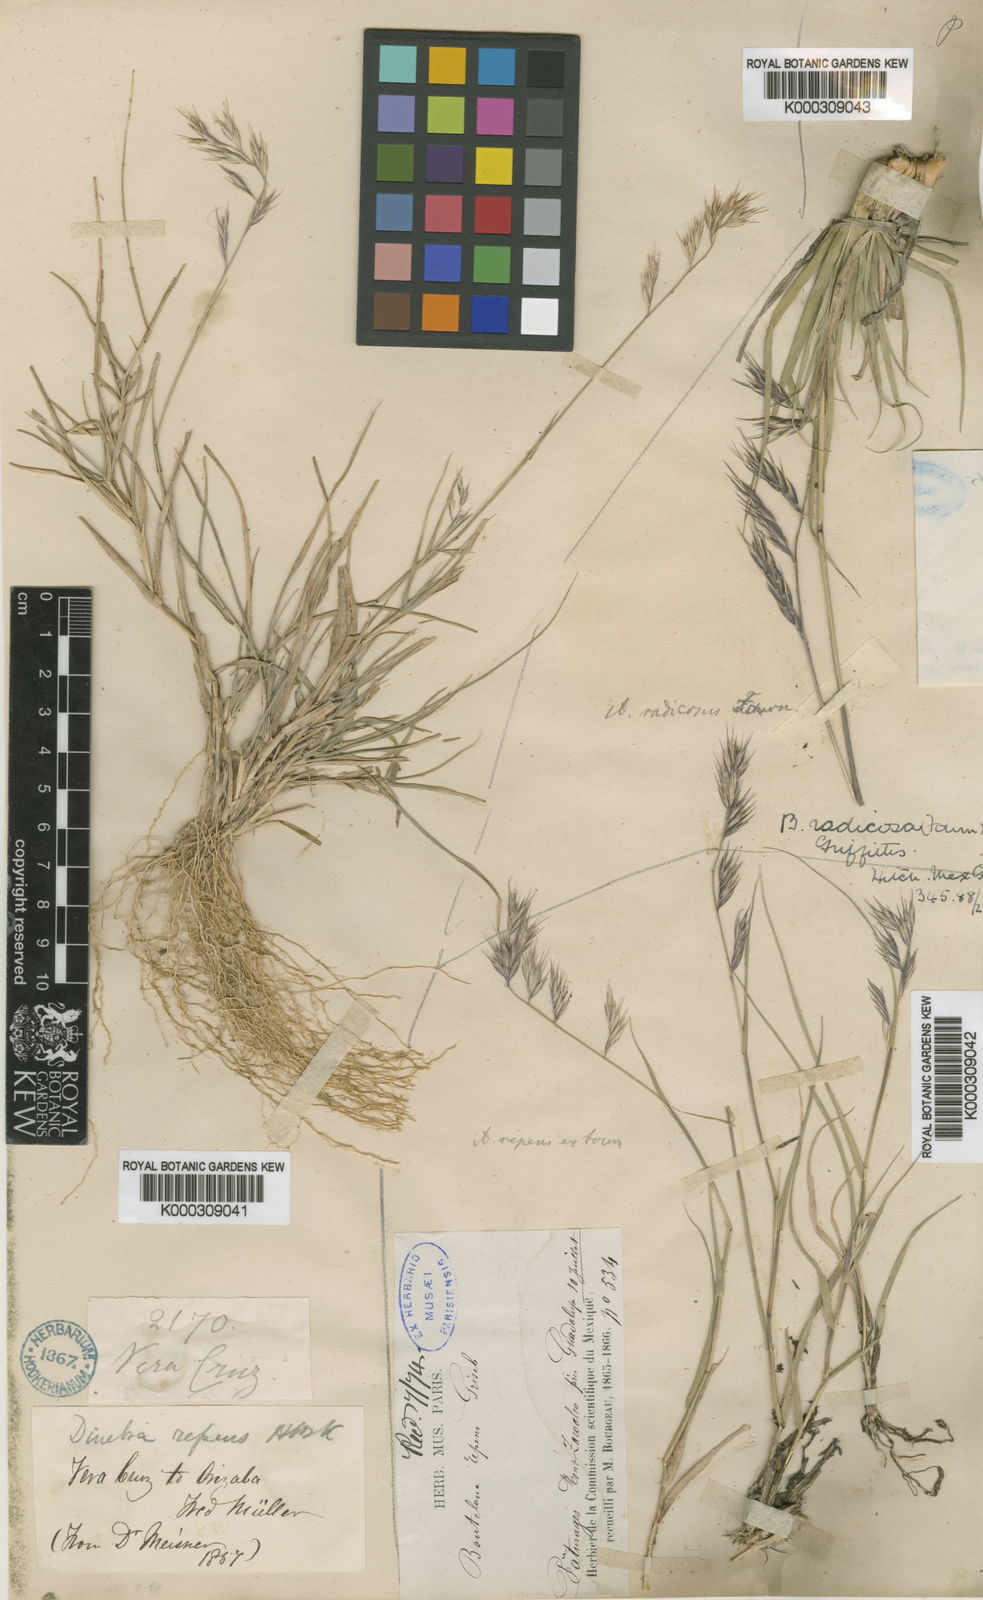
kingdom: Plantae
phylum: Tracheophyta
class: Liliopsida
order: Poales
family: Poaceae
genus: Bouteloua
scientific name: Bouteloua radicosa
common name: Purple grama
